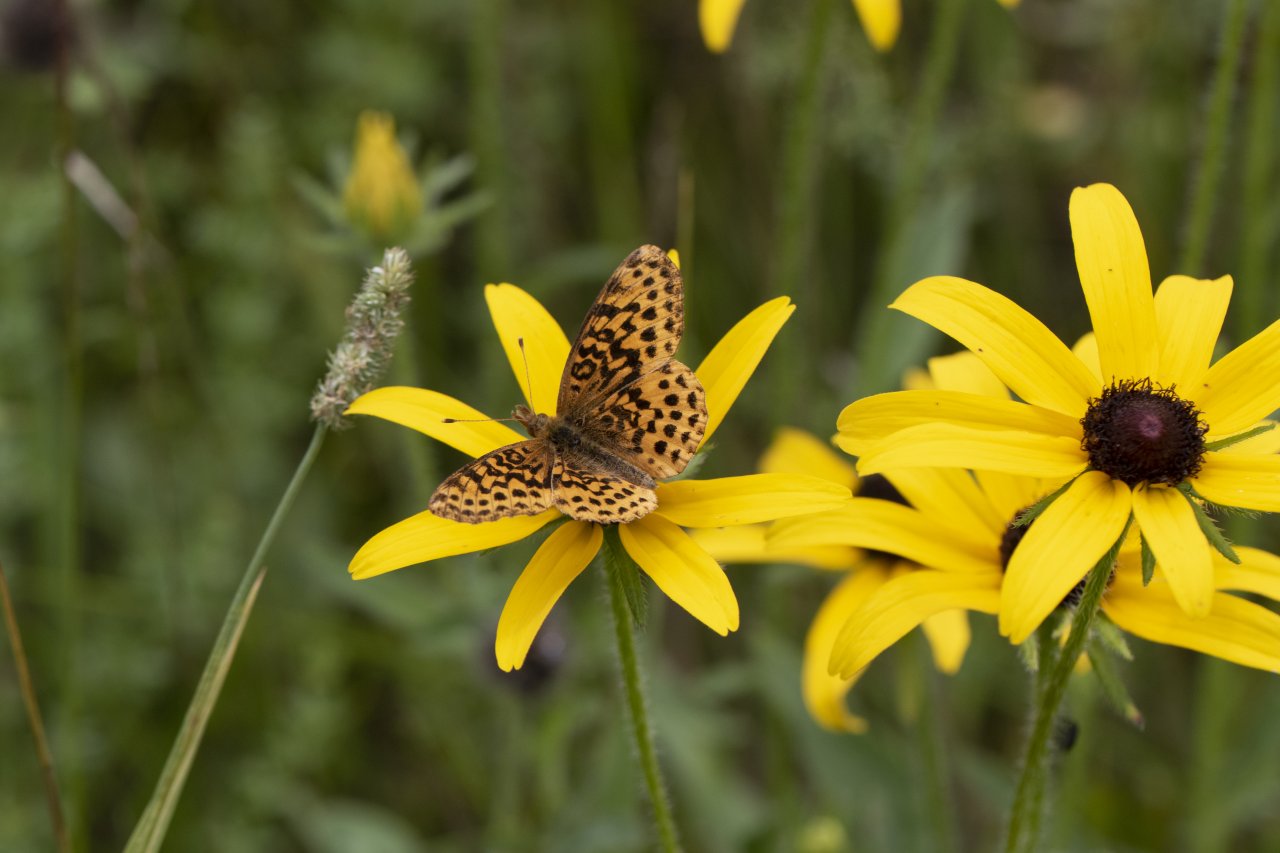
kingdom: Animalia
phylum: Arthropoda
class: Insecta
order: Lepidoptera
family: Nymphalidae
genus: Clossiana
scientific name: Clossiana toddi
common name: Meadow Fritillary
